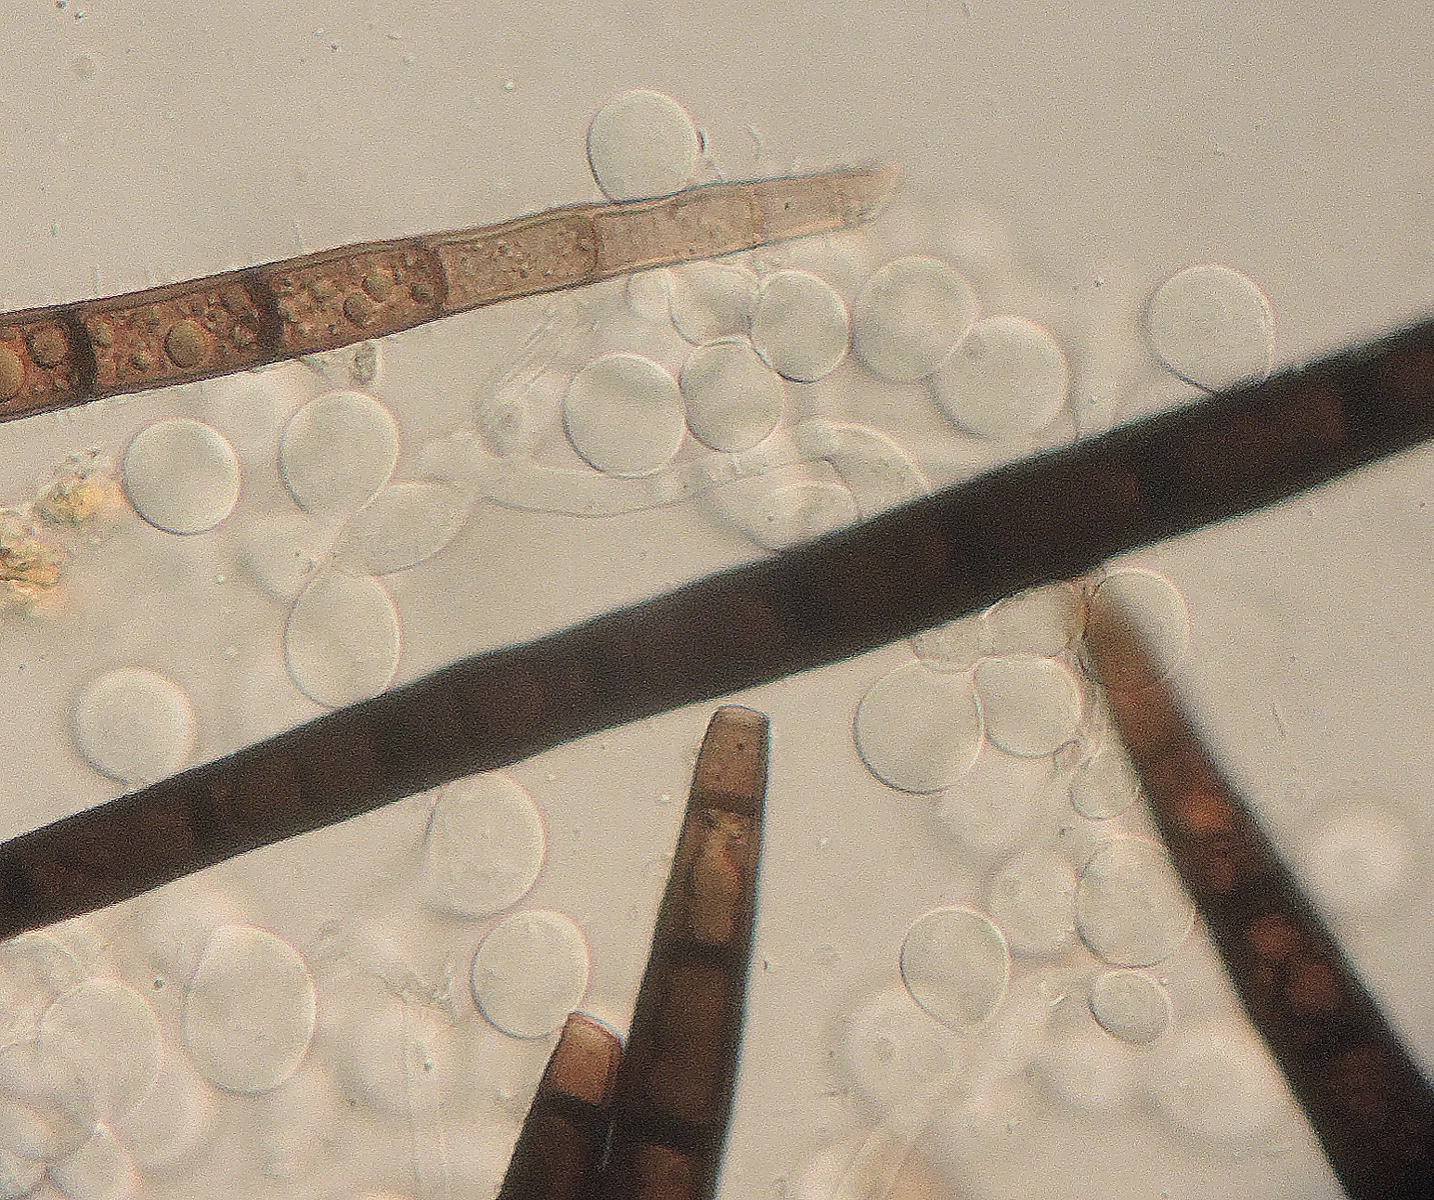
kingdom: Fungi
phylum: Basidiomycota
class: Agaricomycetes
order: Polyporales
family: Meruliaceae
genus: Bulbillomyces
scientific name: Bulbillomyces farinosus
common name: æg-kalkskind
